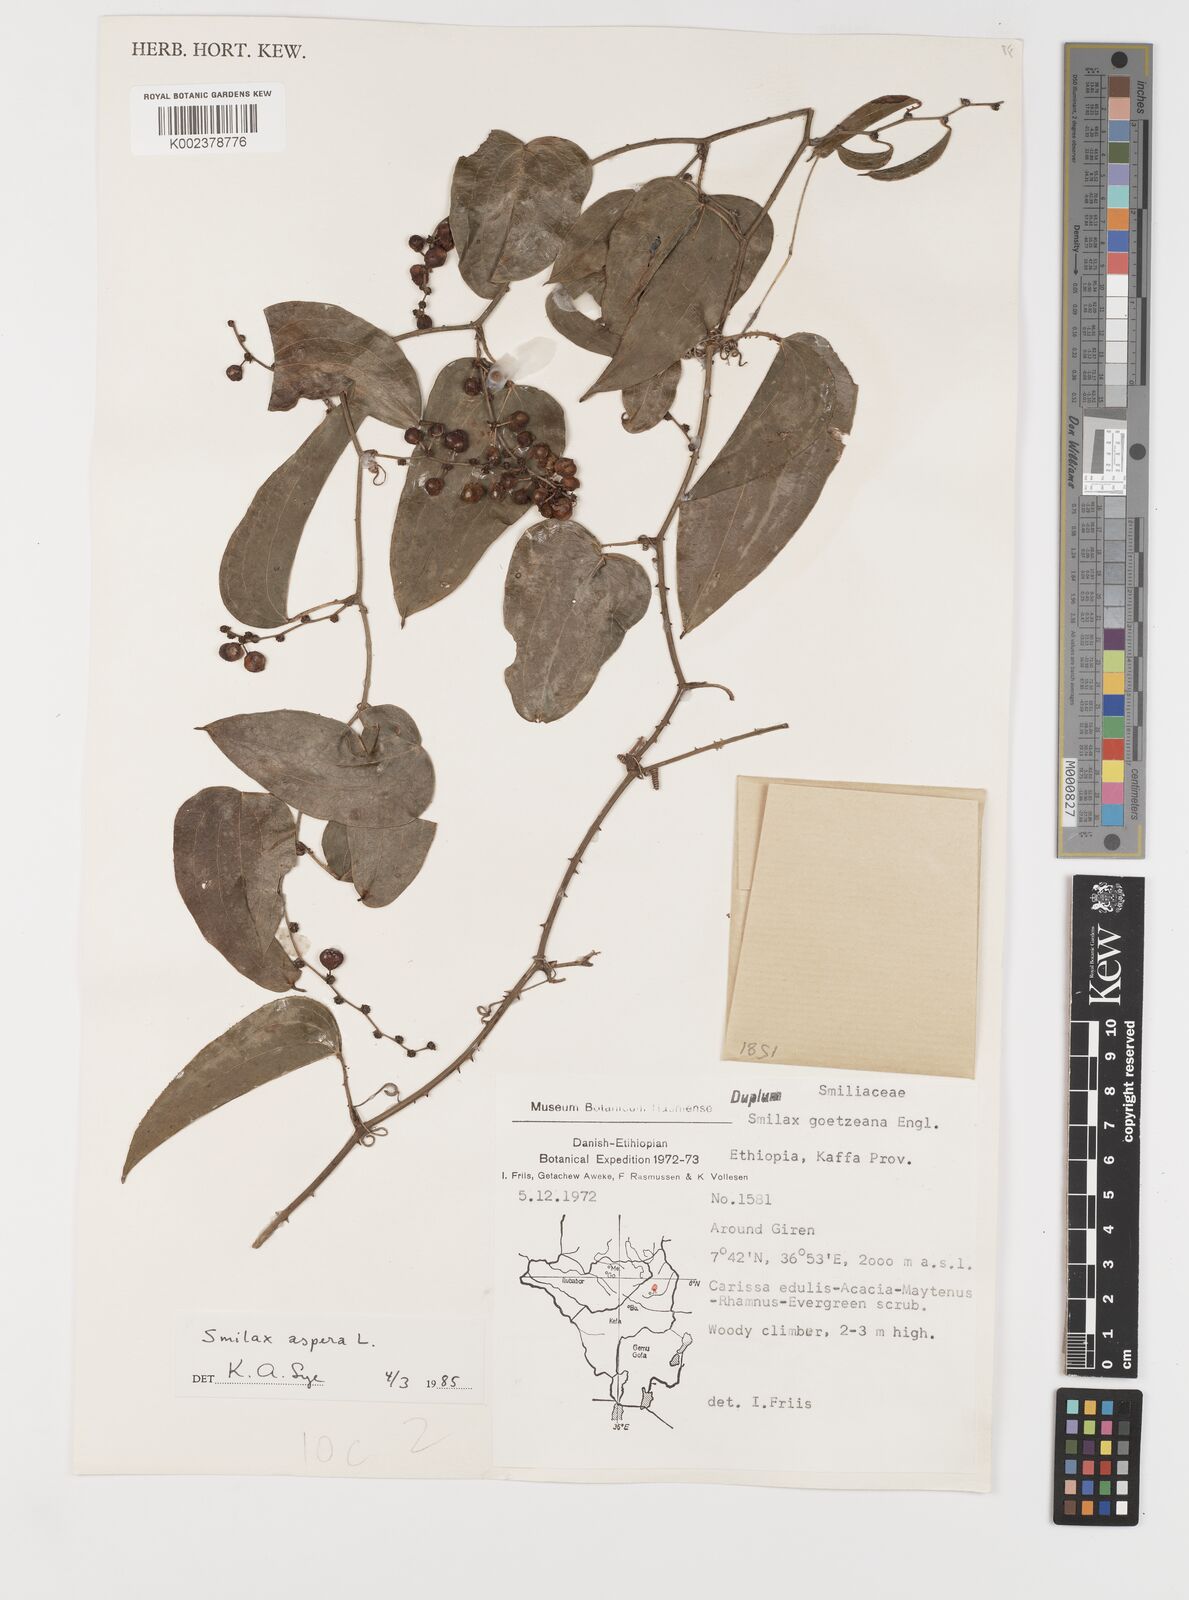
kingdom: Plantae
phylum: Tracheophyta
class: Liliopsida
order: Liliales
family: Smilacaceae
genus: Smilax
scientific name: Smilax aspera
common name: Common smilax
